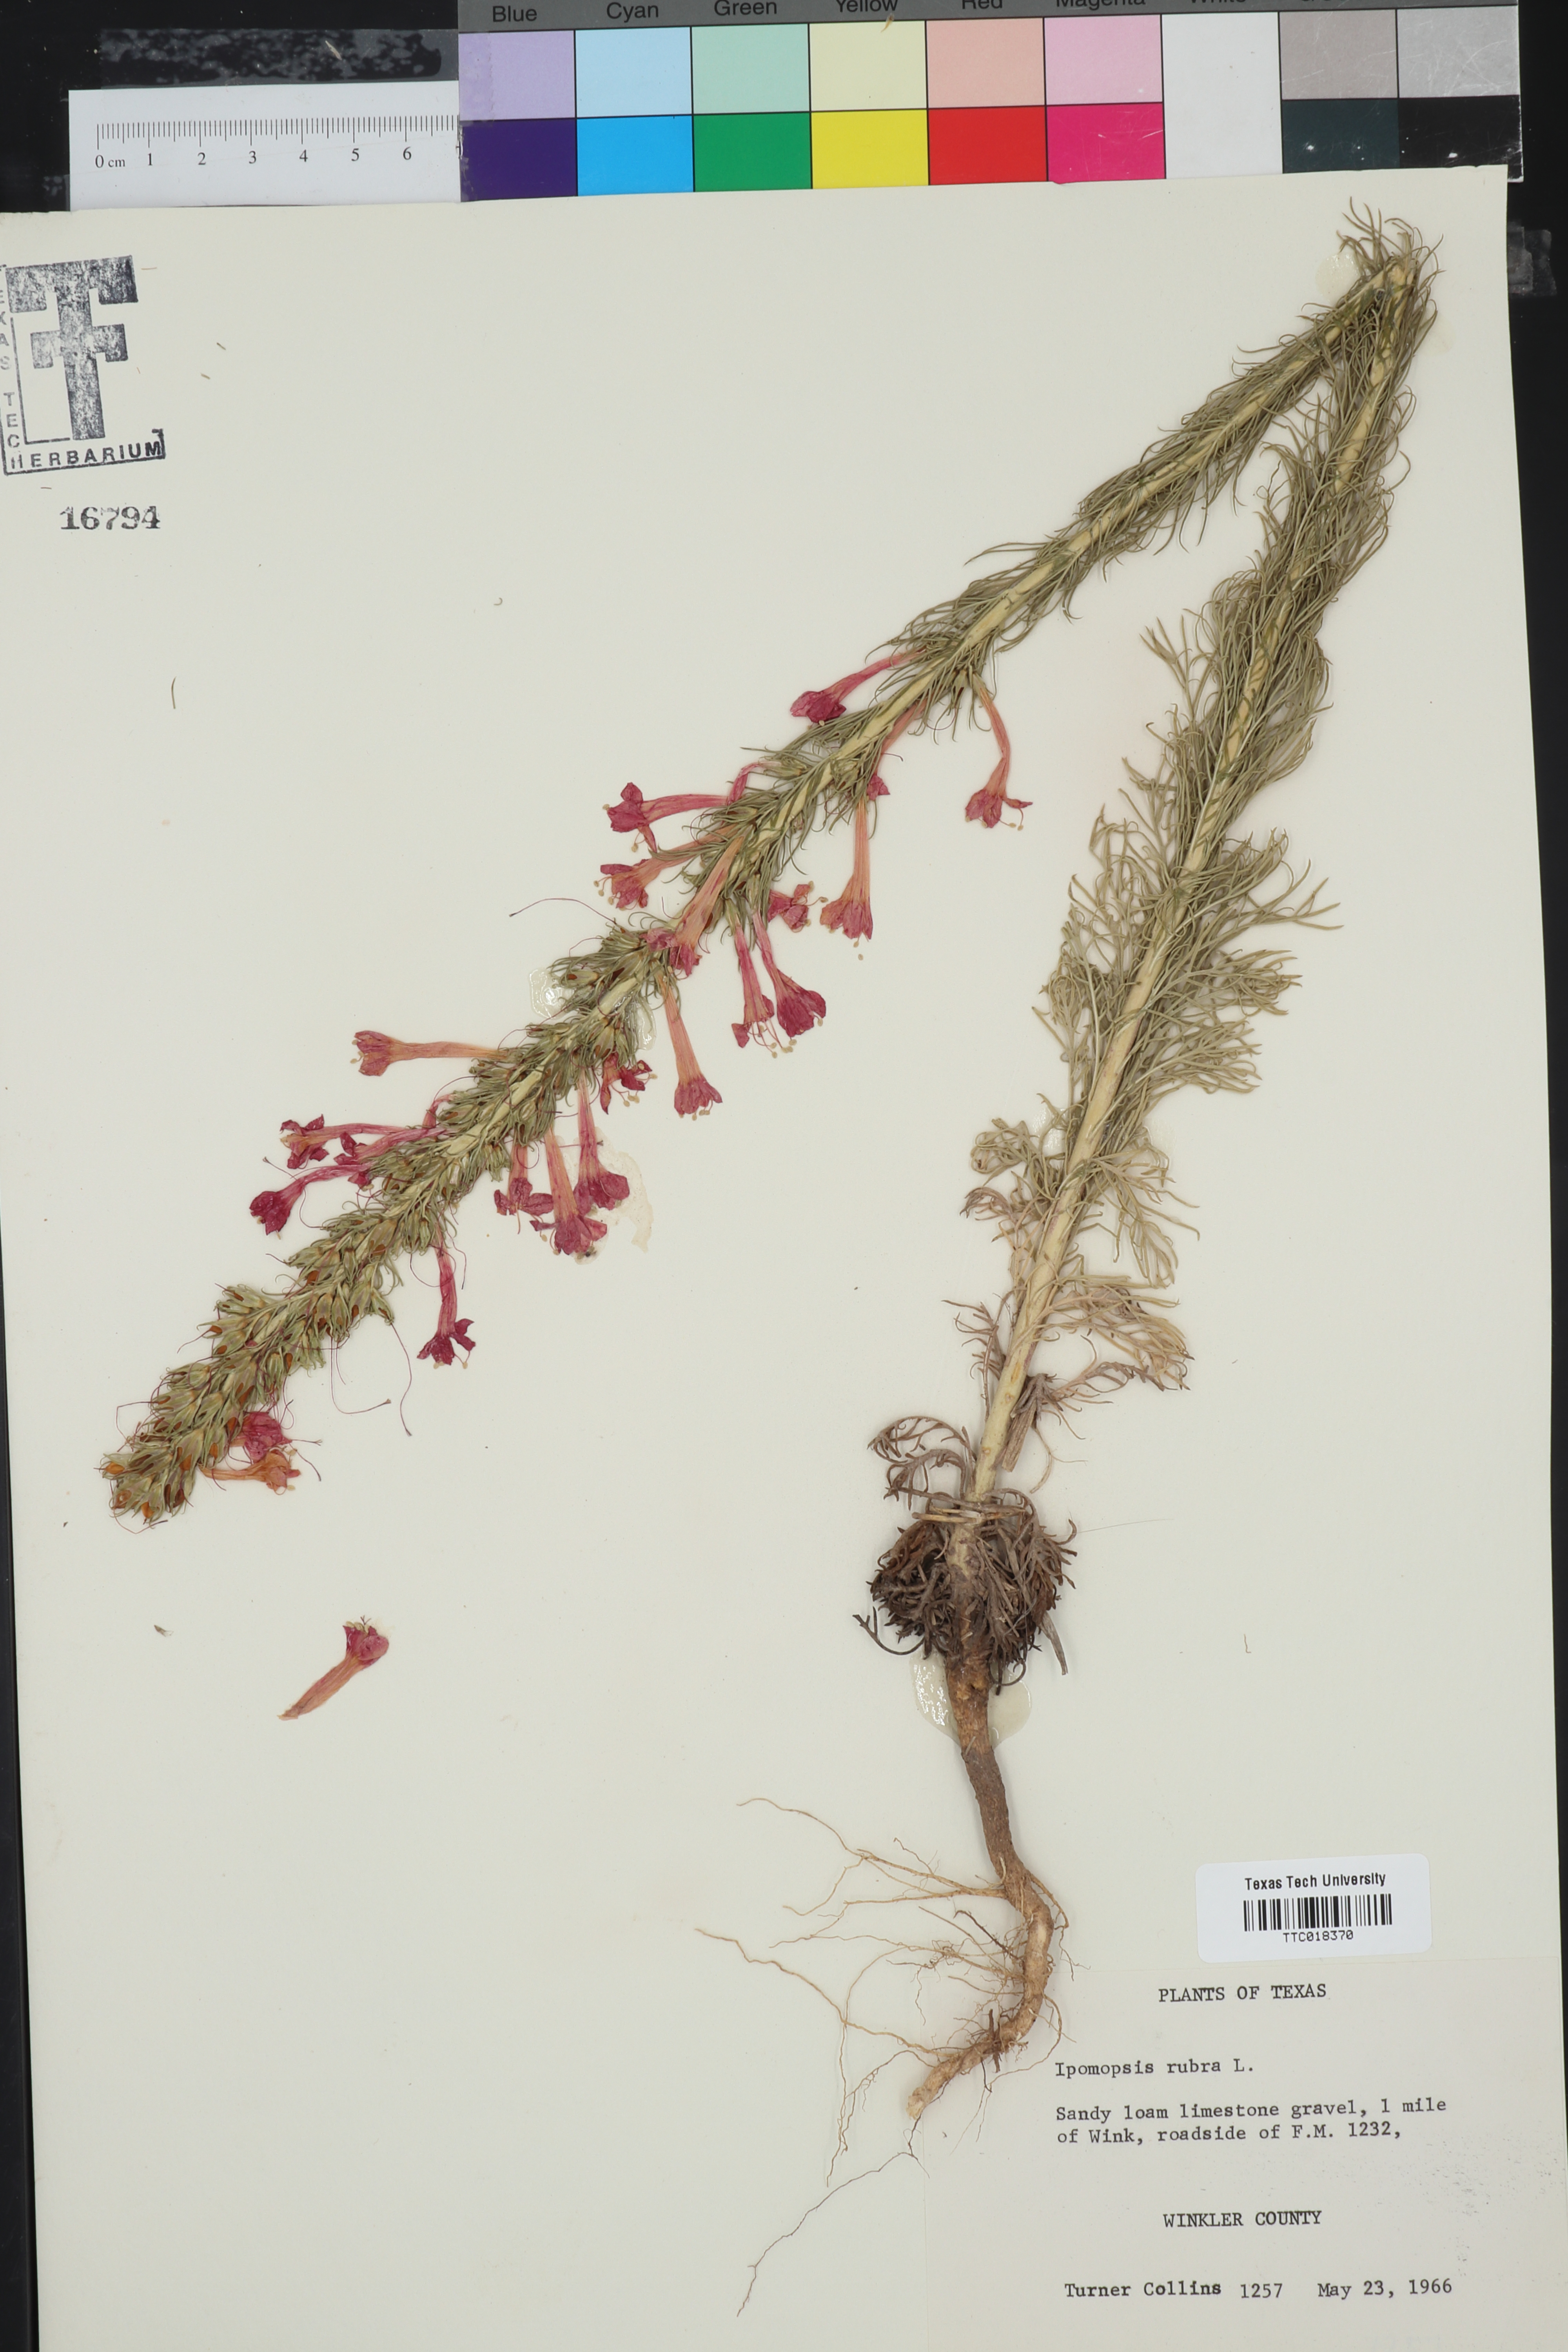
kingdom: Plantae
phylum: Tracheophyta
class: Magnoliopsida
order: Ericales
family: Polemoniaceae
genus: Ipomopsis
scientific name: Ipomopsis rubra
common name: Skyrocket
